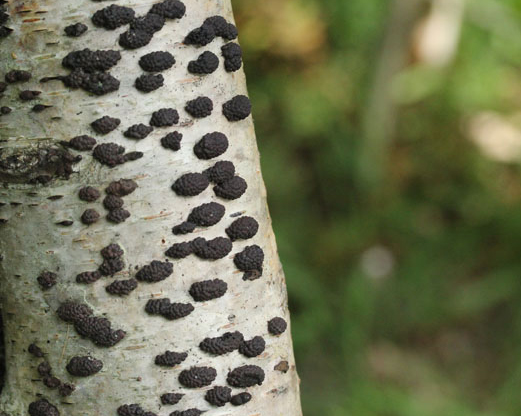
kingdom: Fungi
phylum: Ascomycota
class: Sordariomycetes
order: Xylariales
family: Hypoxylaceae
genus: Jackrogersella
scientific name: Jackrogersella multiformis
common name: foranderlig kulbær
